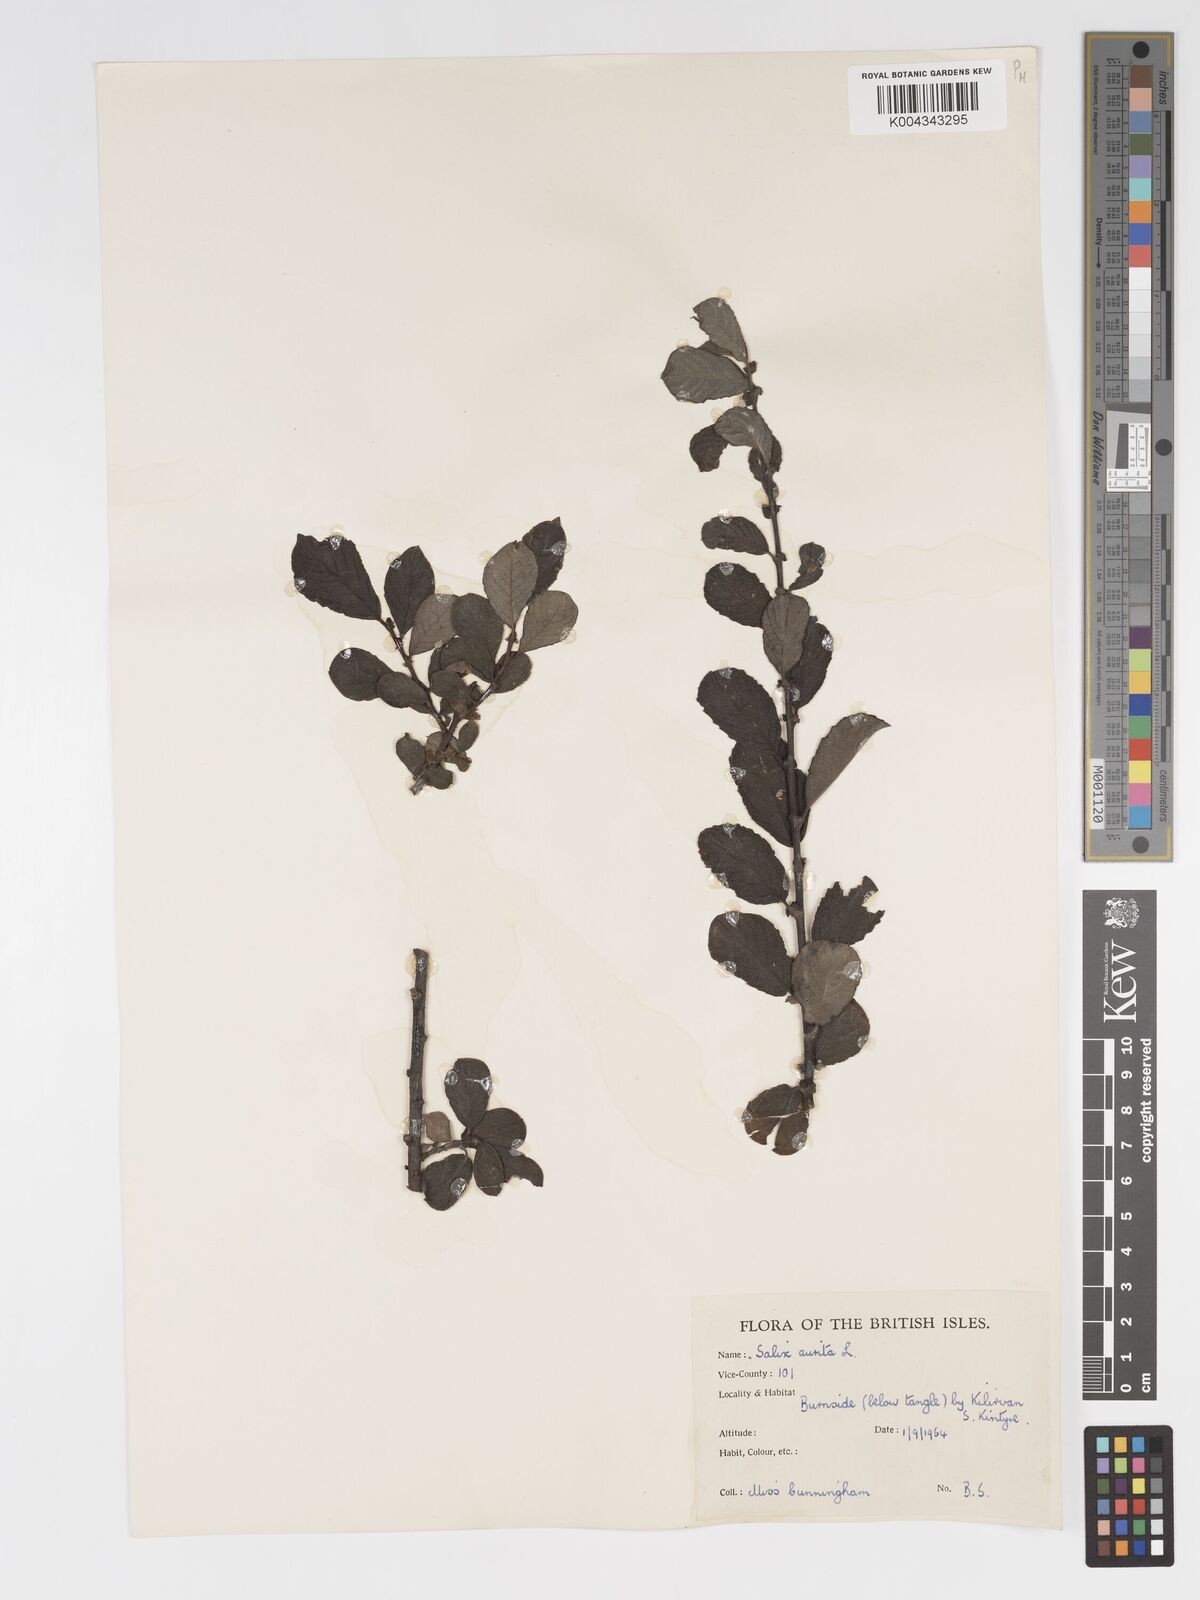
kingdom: Plantae
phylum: Tracheophyta
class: Magnoliopsida
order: Malpighiales
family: Salicaceae
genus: Salix
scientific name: Salix aurita
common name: Eared willow
